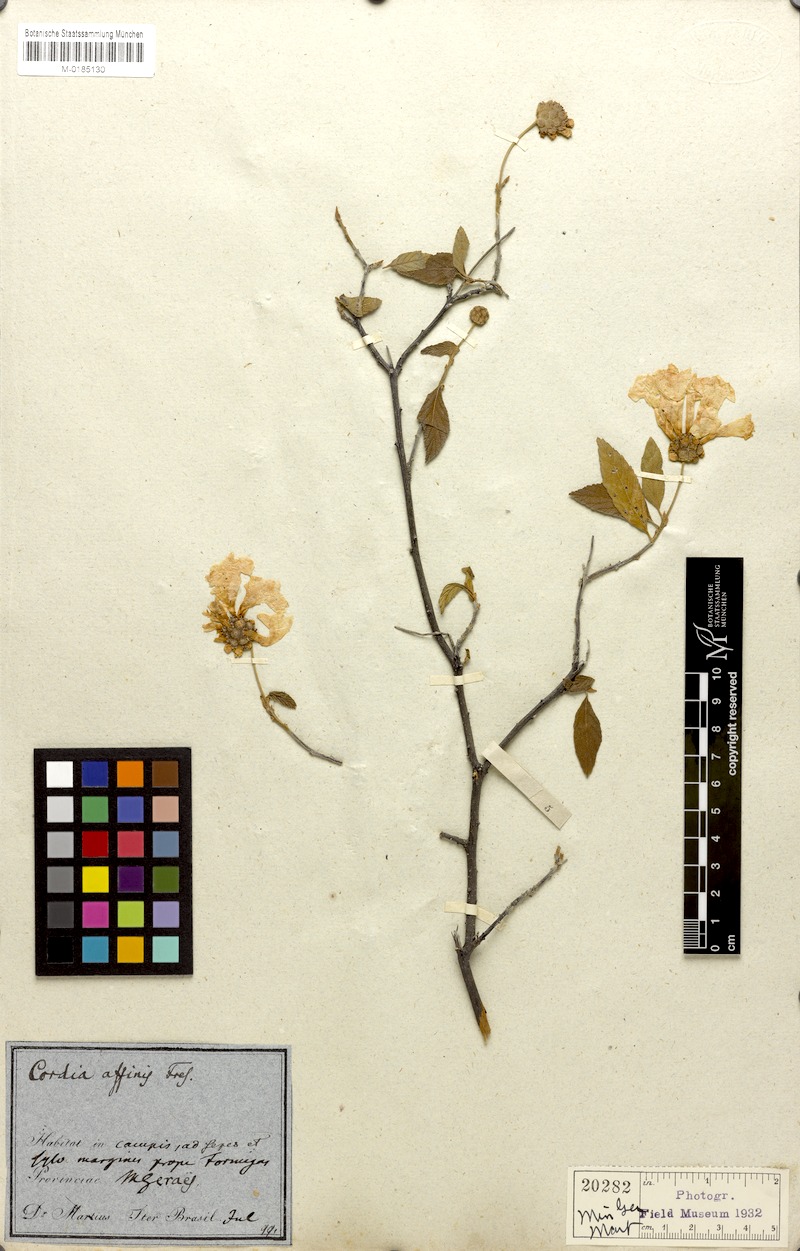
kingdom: Plantae
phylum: Tracheophyta
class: Magnoliopsida
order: Boraginales
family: Cordiaceae
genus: Cordia
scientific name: Cordia affinis
